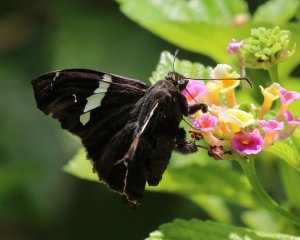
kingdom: Animalia
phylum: Arthropoda
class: Insecta
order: Lepidoptera
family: Hesperiidae
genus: Spathilepia
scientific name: Spathilepia clonius
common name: Falcate Skipper
